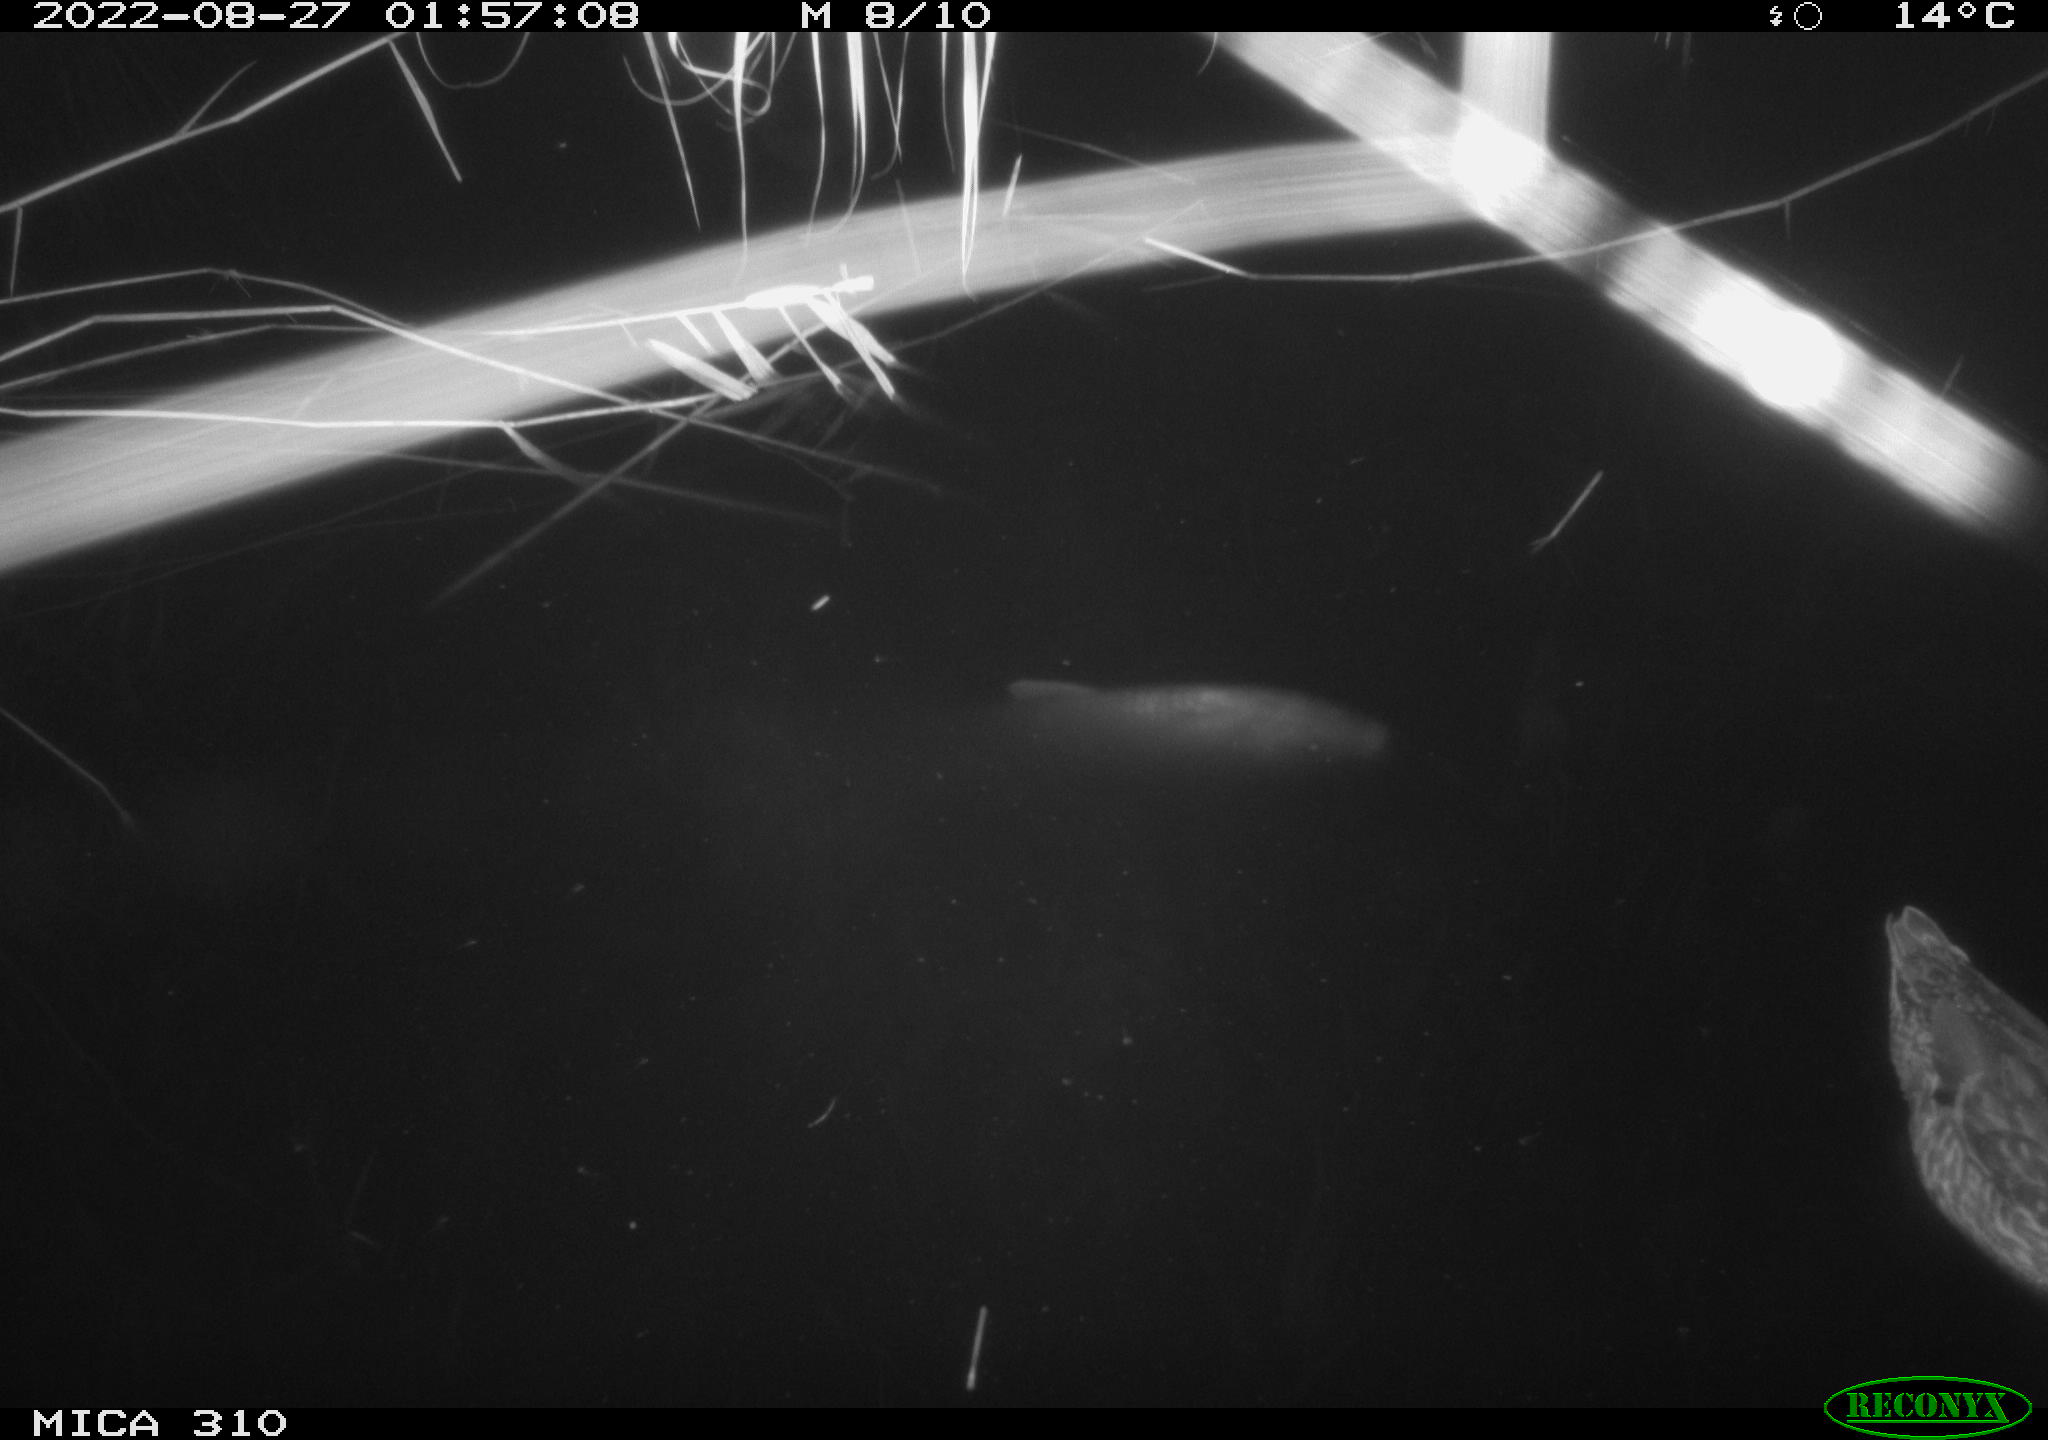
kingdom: Animalia
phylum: Chordata
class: Aves
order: Anseriformes
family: Anatidae
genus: Anas
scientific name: Anas platyrhynchos
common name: Mallard
